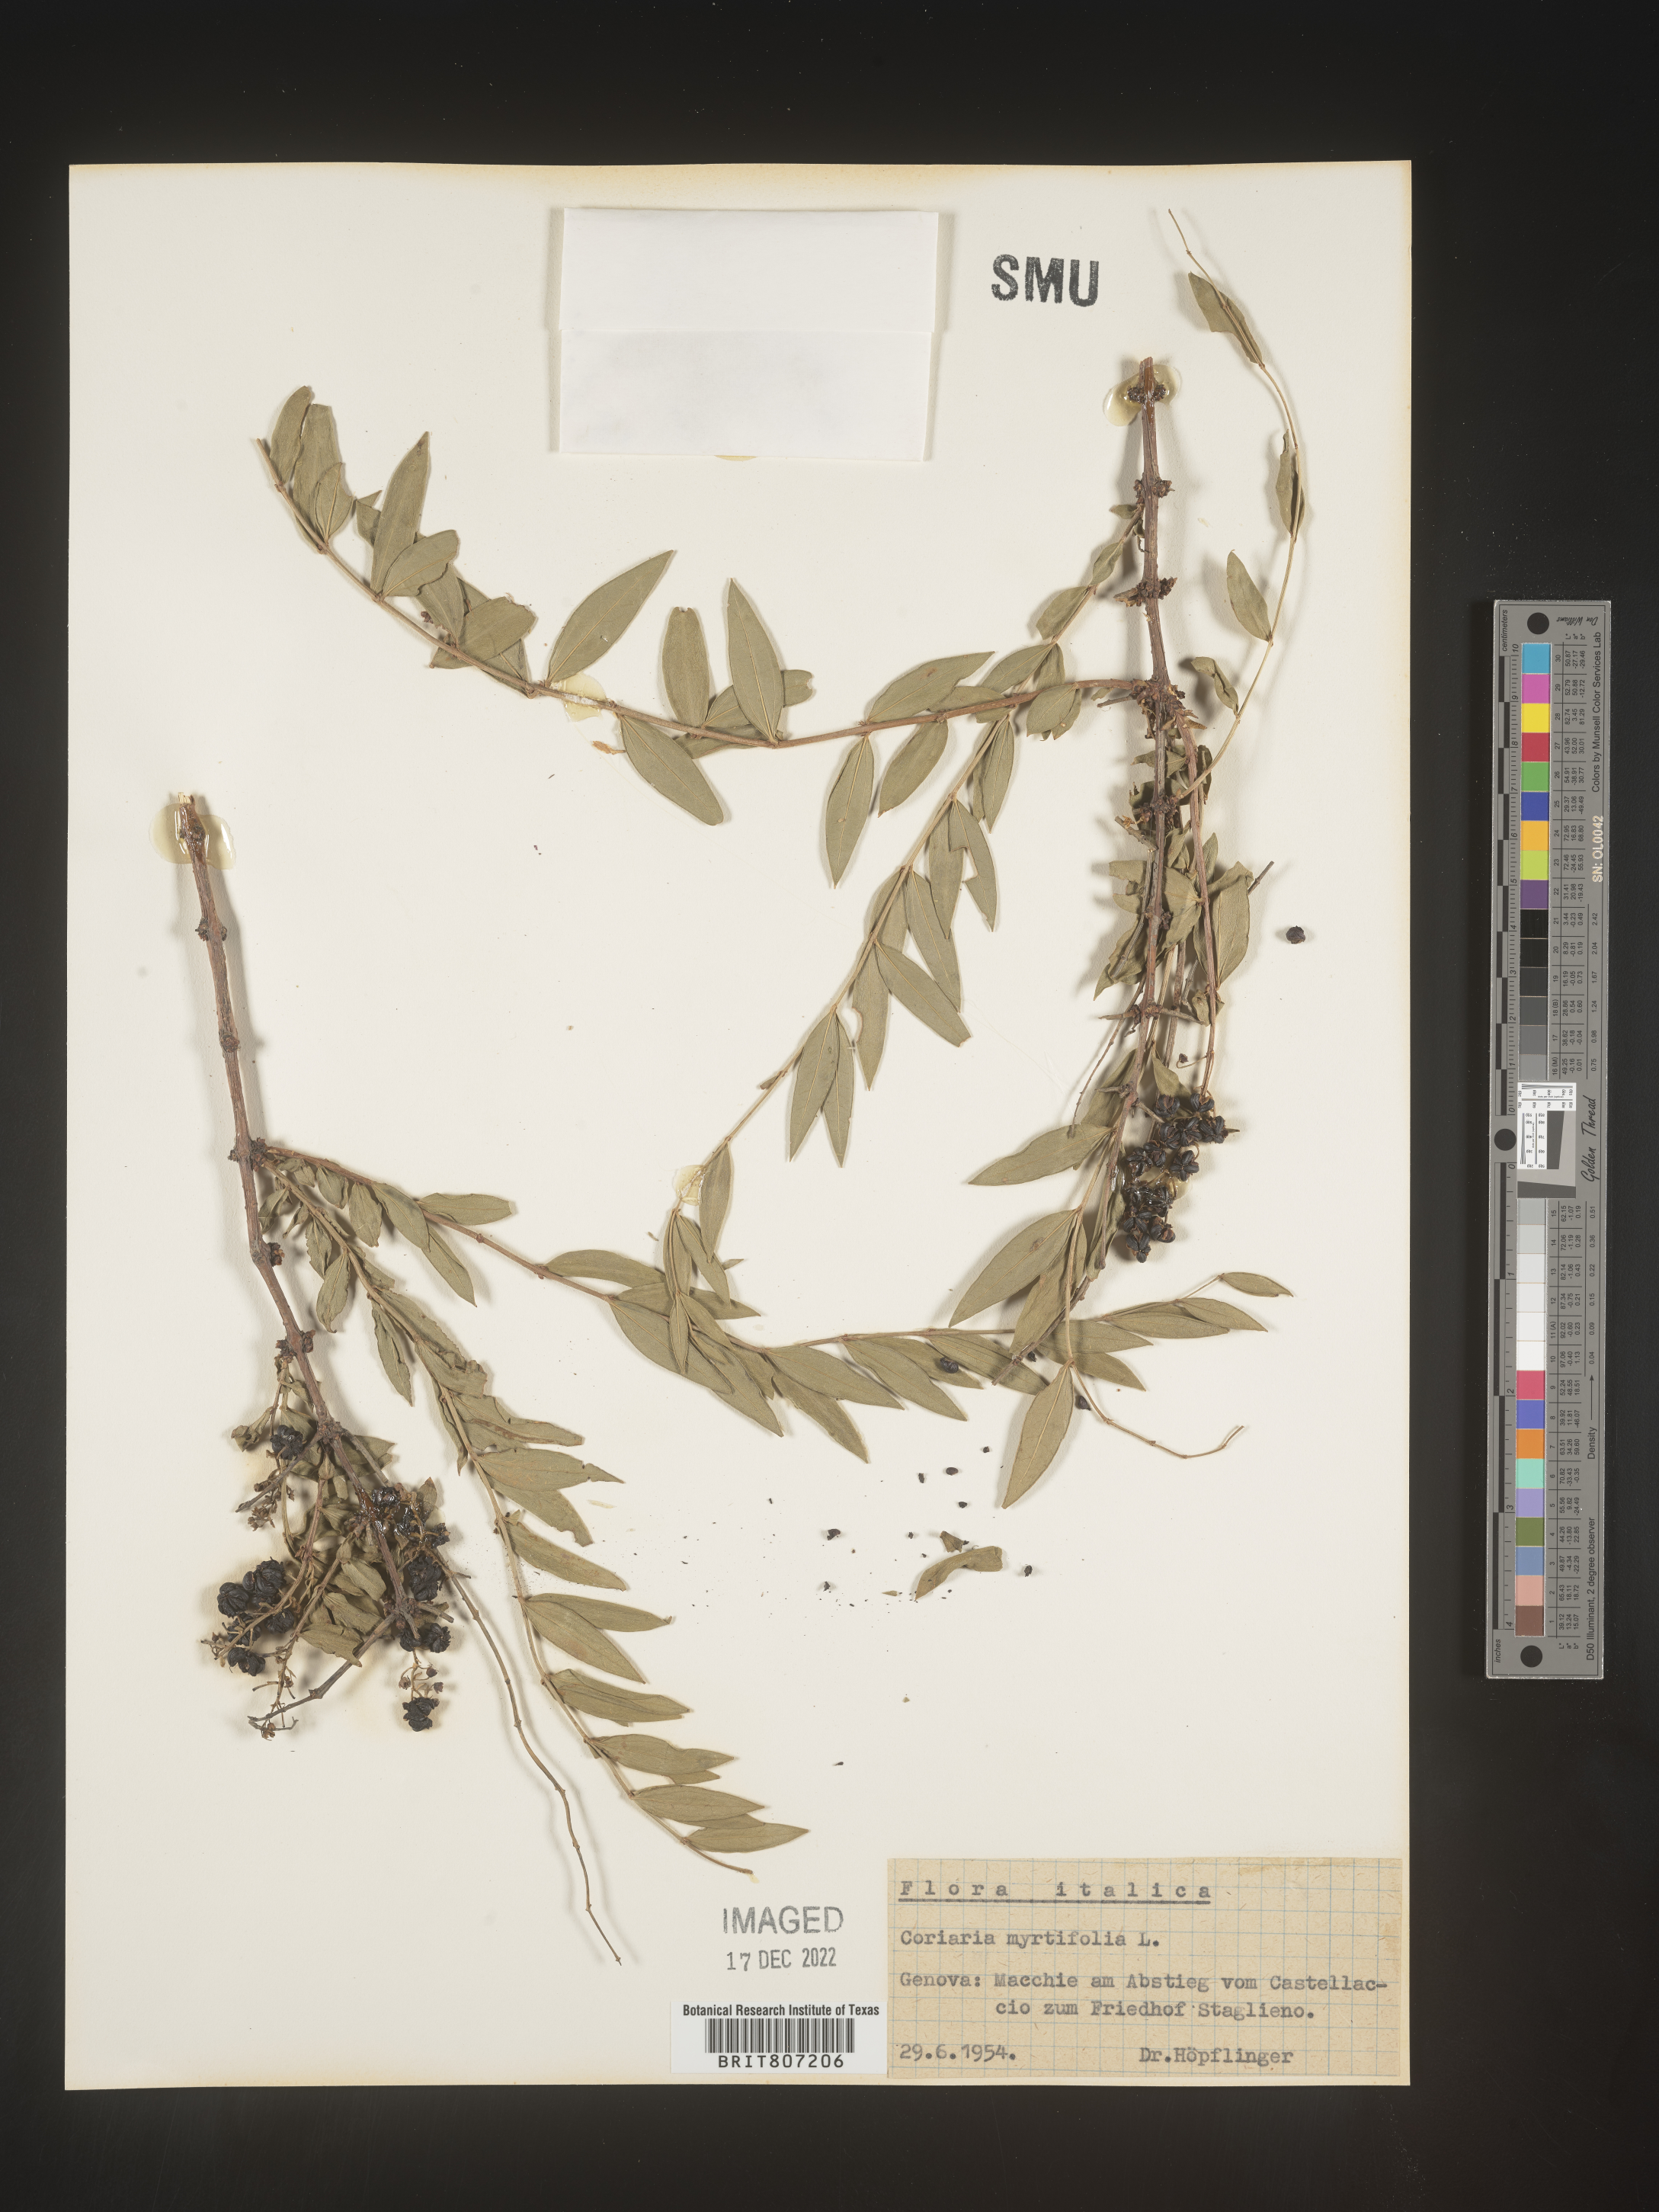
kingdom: Plantae
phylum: Tracheophyta
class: Magnoliopsida
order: Cucurbitales
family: Coriariaceae
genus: Coriaria
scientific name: Coriaria
